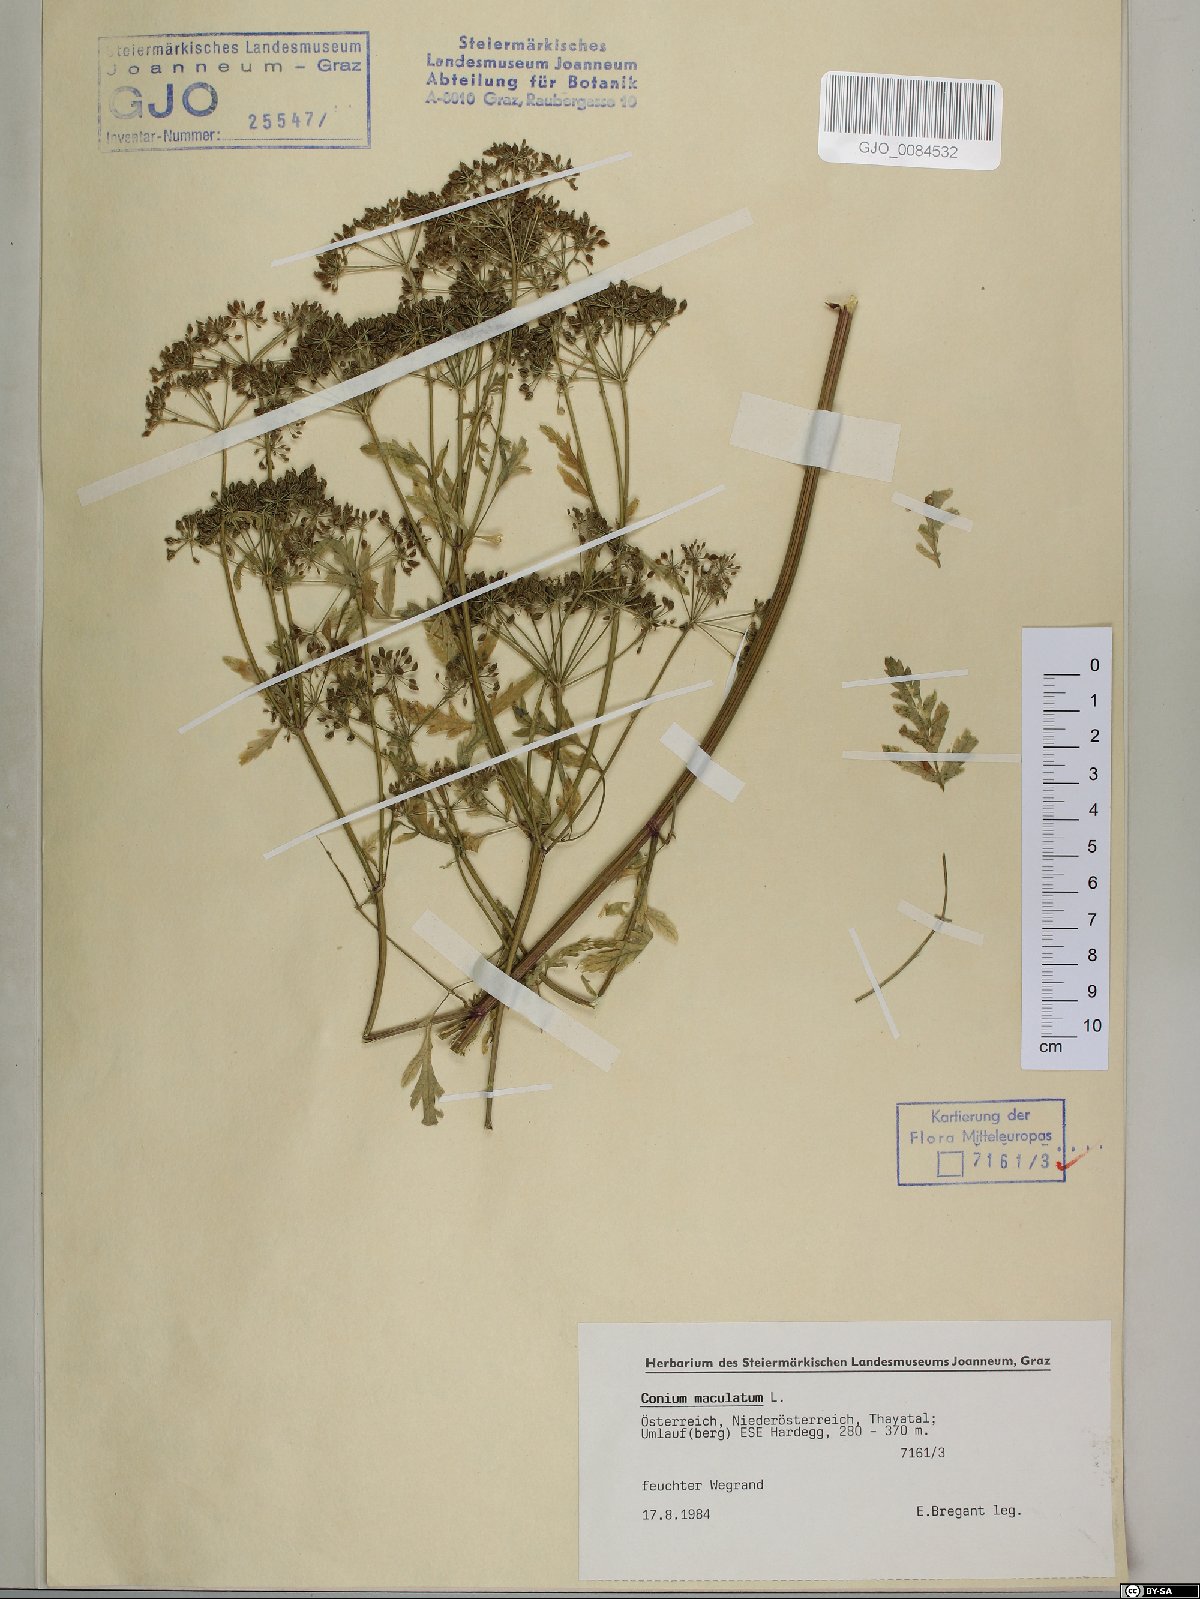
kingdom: Plantae
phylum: Tracheophyta
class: Magnoliopsida
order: Apiales
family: Apiaceae
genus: Conium
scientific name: Conium maculatum
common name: Hemlock
